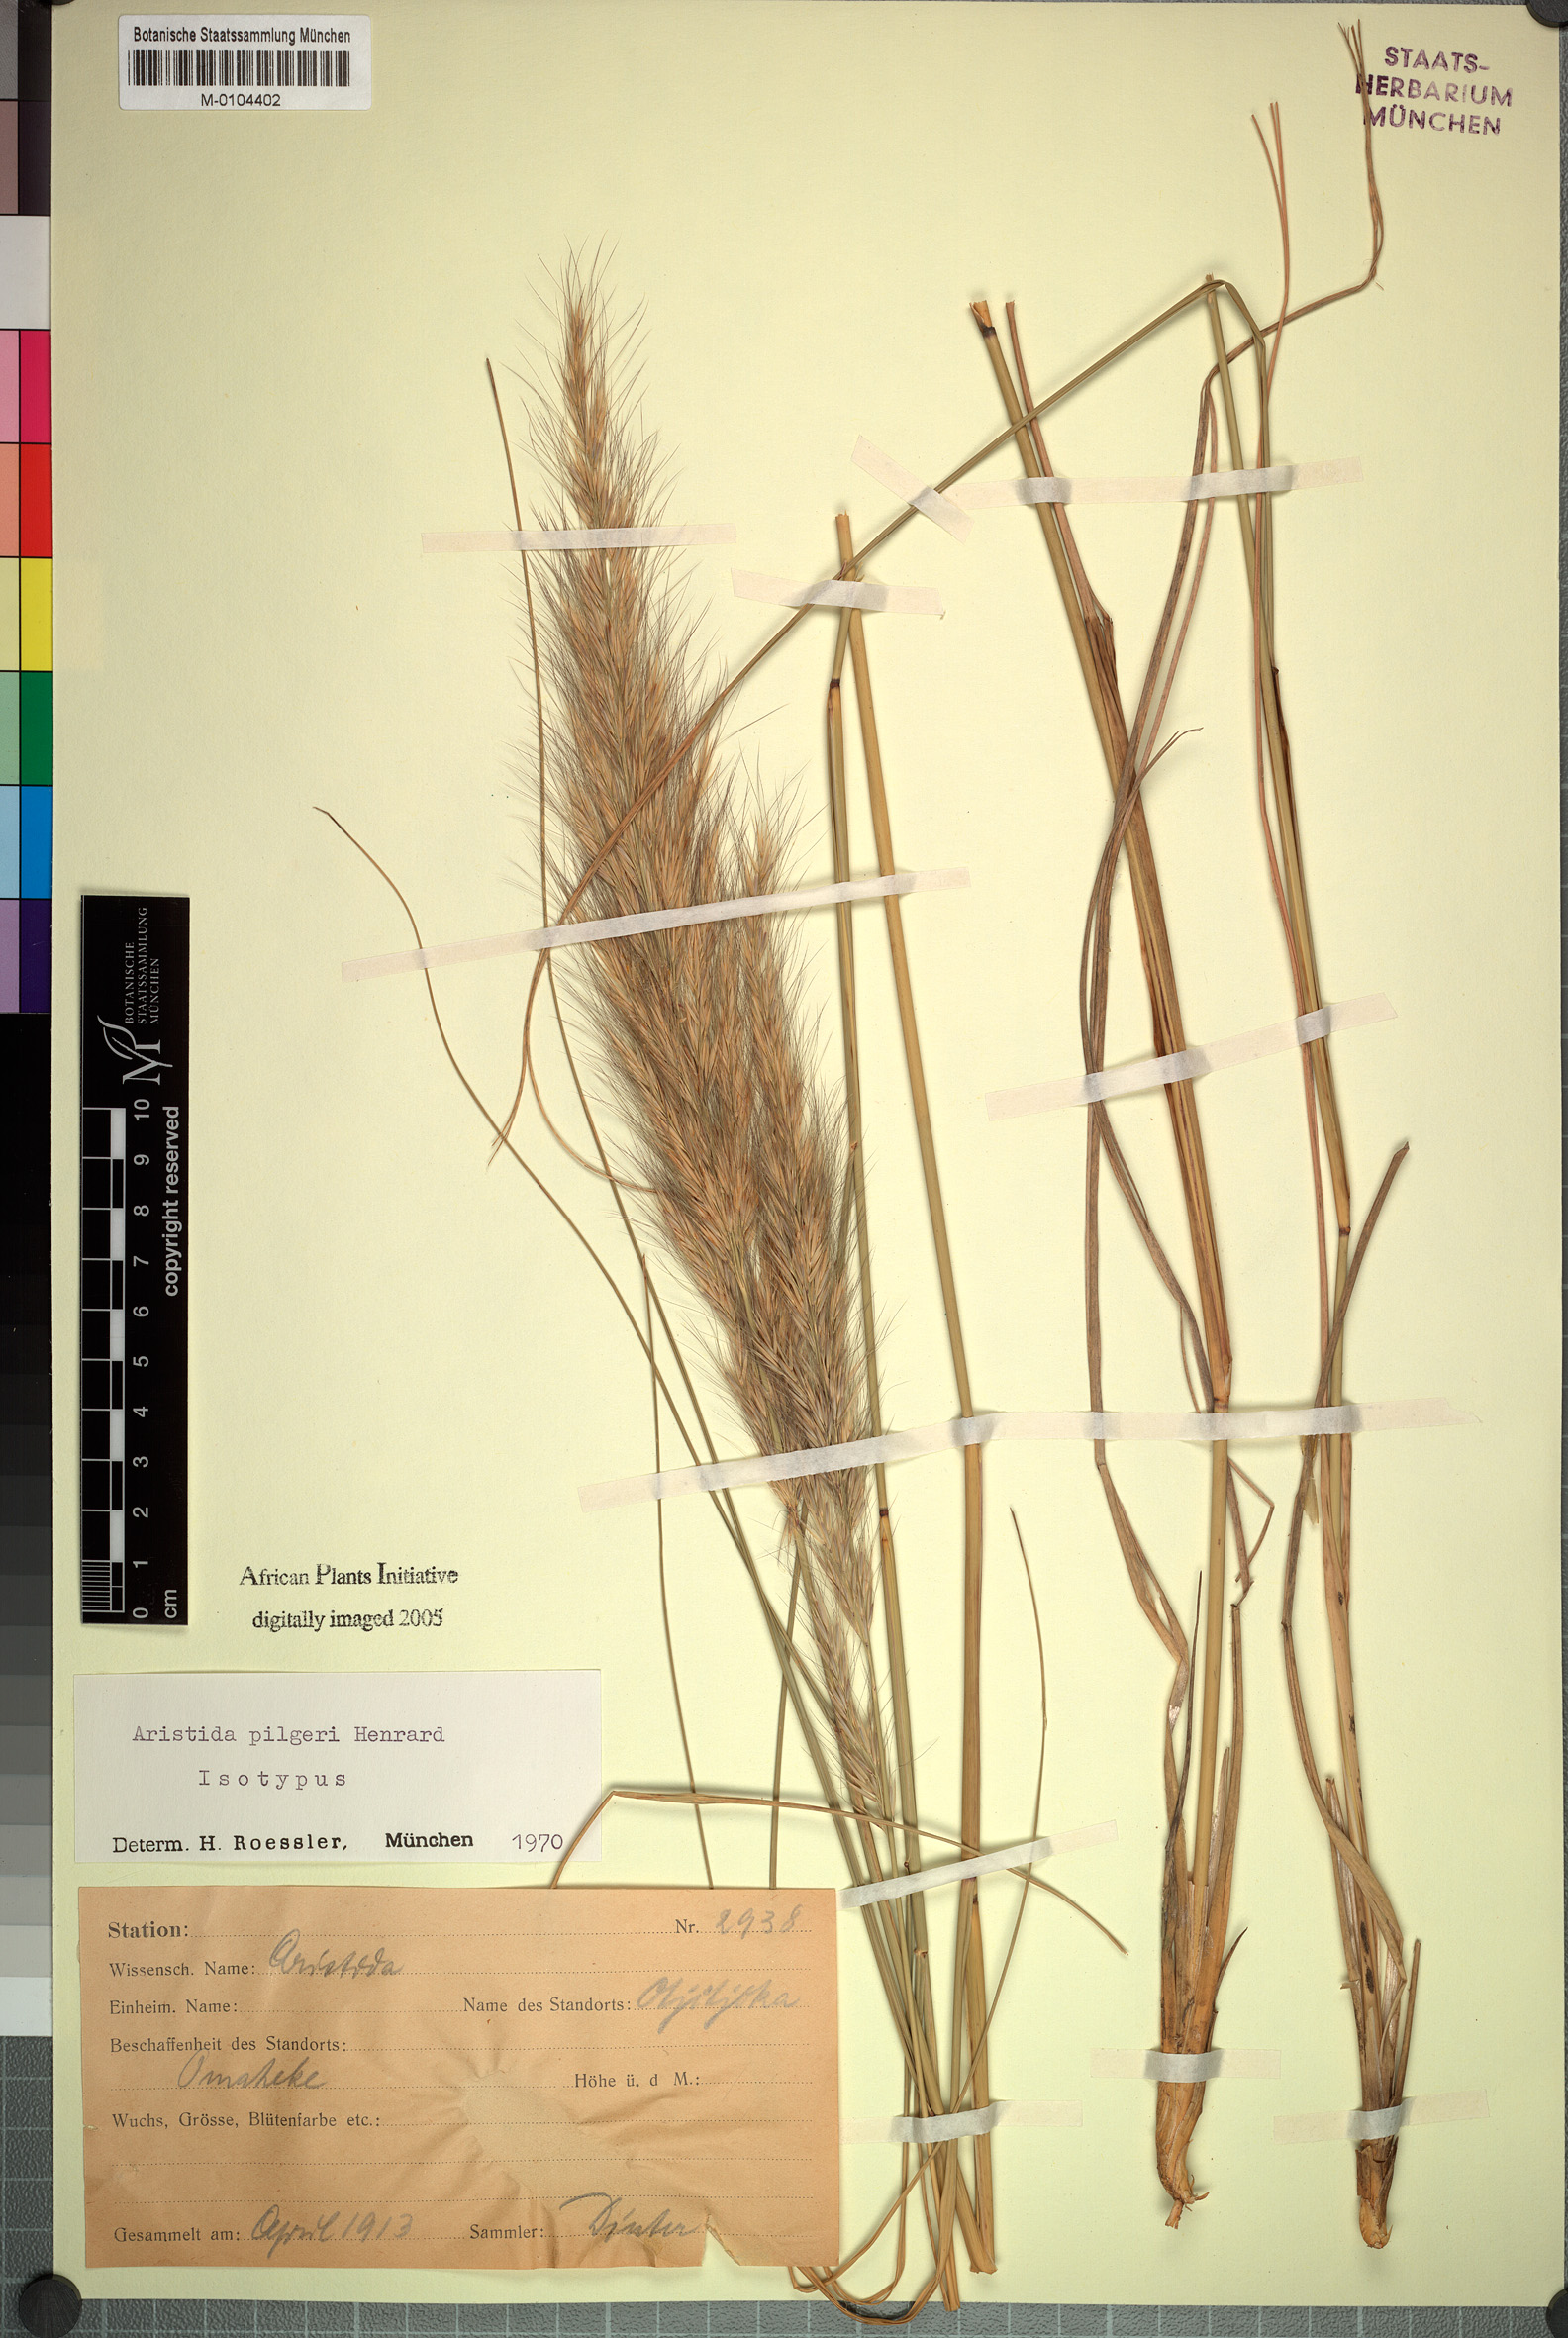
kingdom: Plantae
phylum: Tracheophyta
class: Liliopsida
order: Poales
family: Poaceae
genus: Aristida
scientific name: Aristida pilgeri
